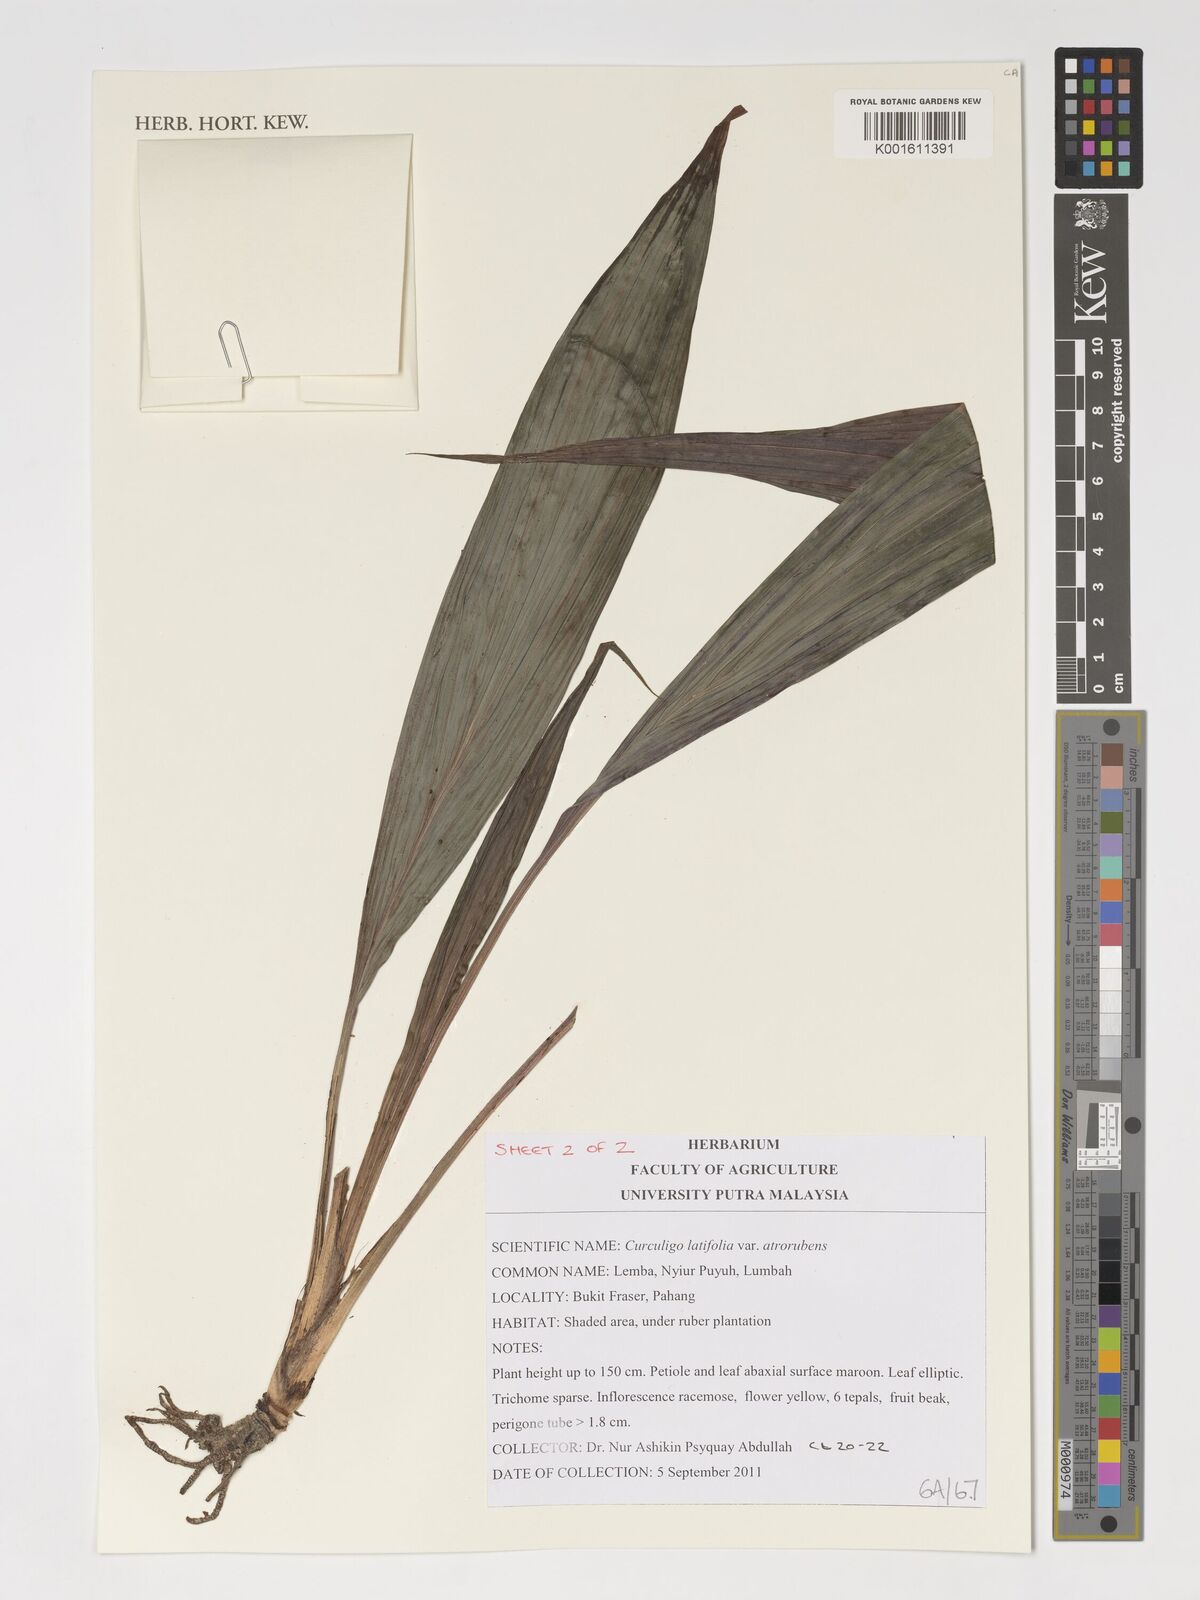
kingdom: Plantae
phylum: Tracheophyta
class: Liliopsida
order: Asparagales
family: Hypoxidaceae
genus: Curculigo
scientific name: Curculigo latifolia
